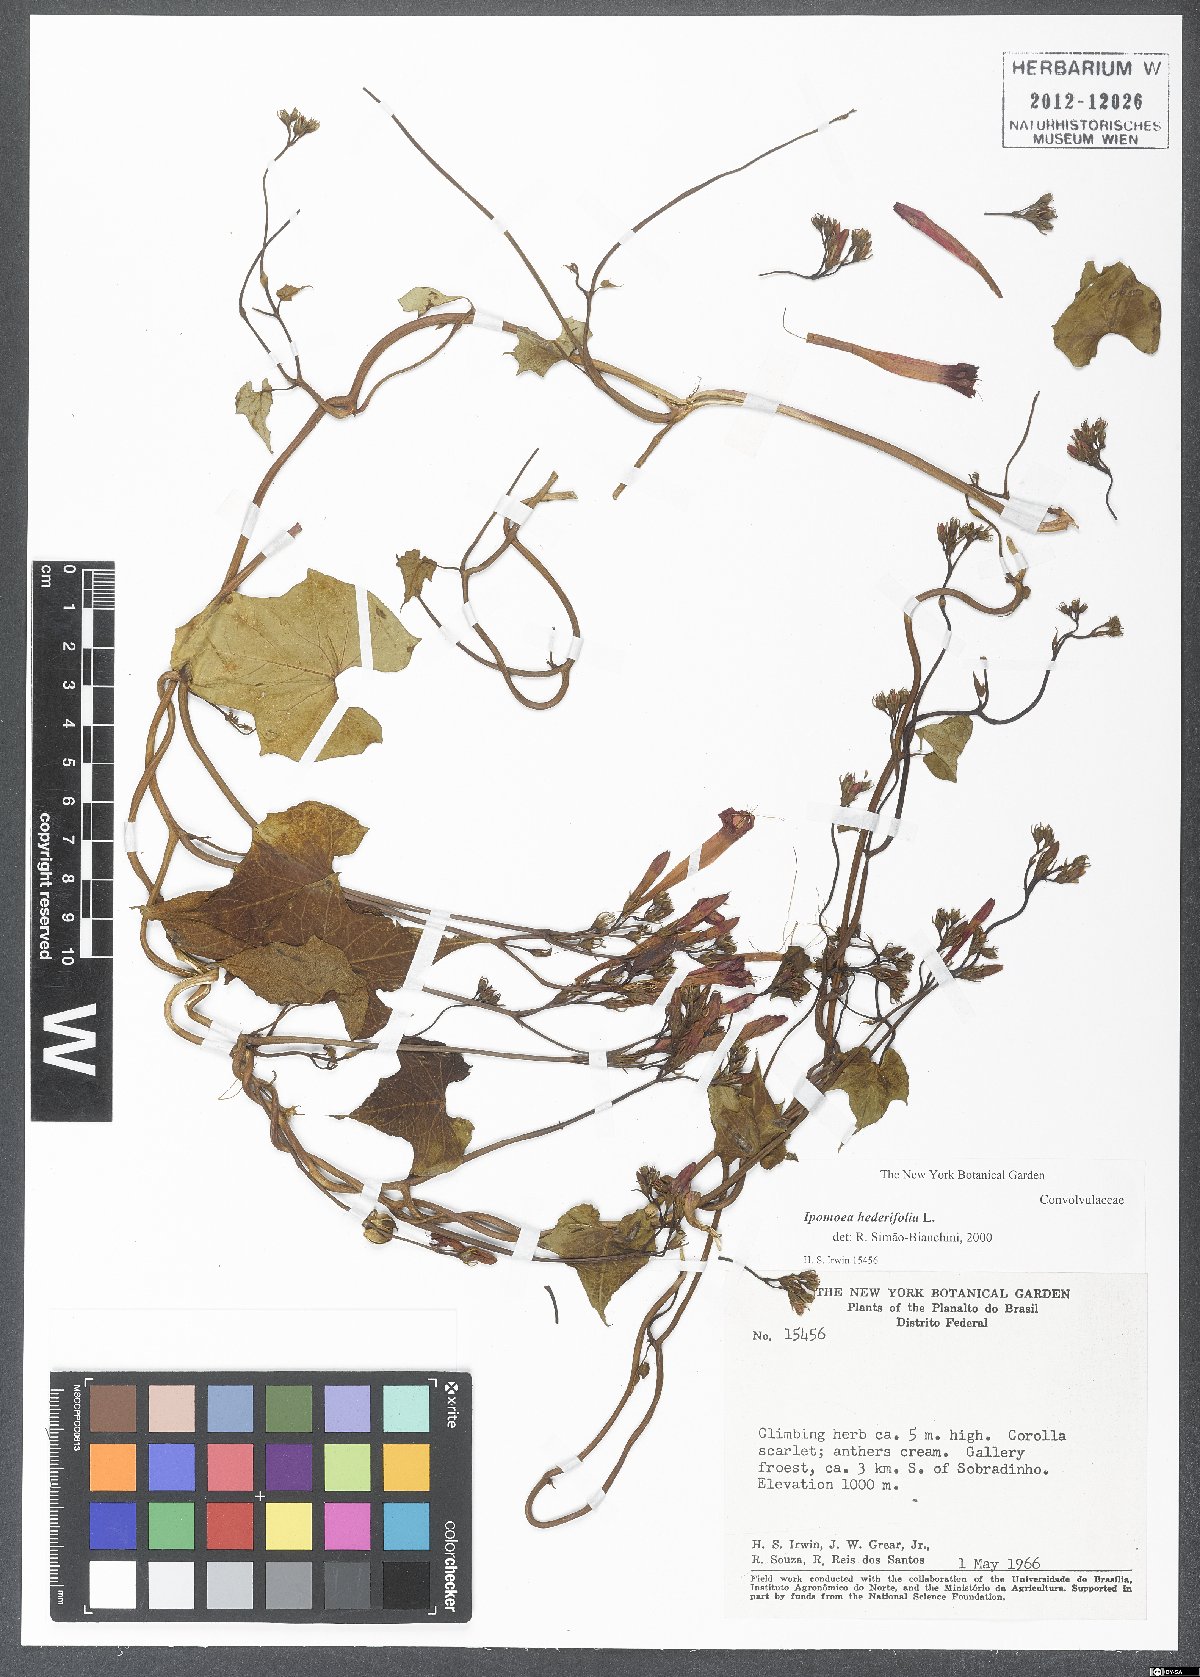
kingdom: Plantae
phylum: Tracheophyta
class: Magnoliopsida
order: Solanales
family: Convolvulaceae
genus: Ipomoea
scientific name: Ipomoea hederifolia
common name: Ivy-leaf morning-glory
